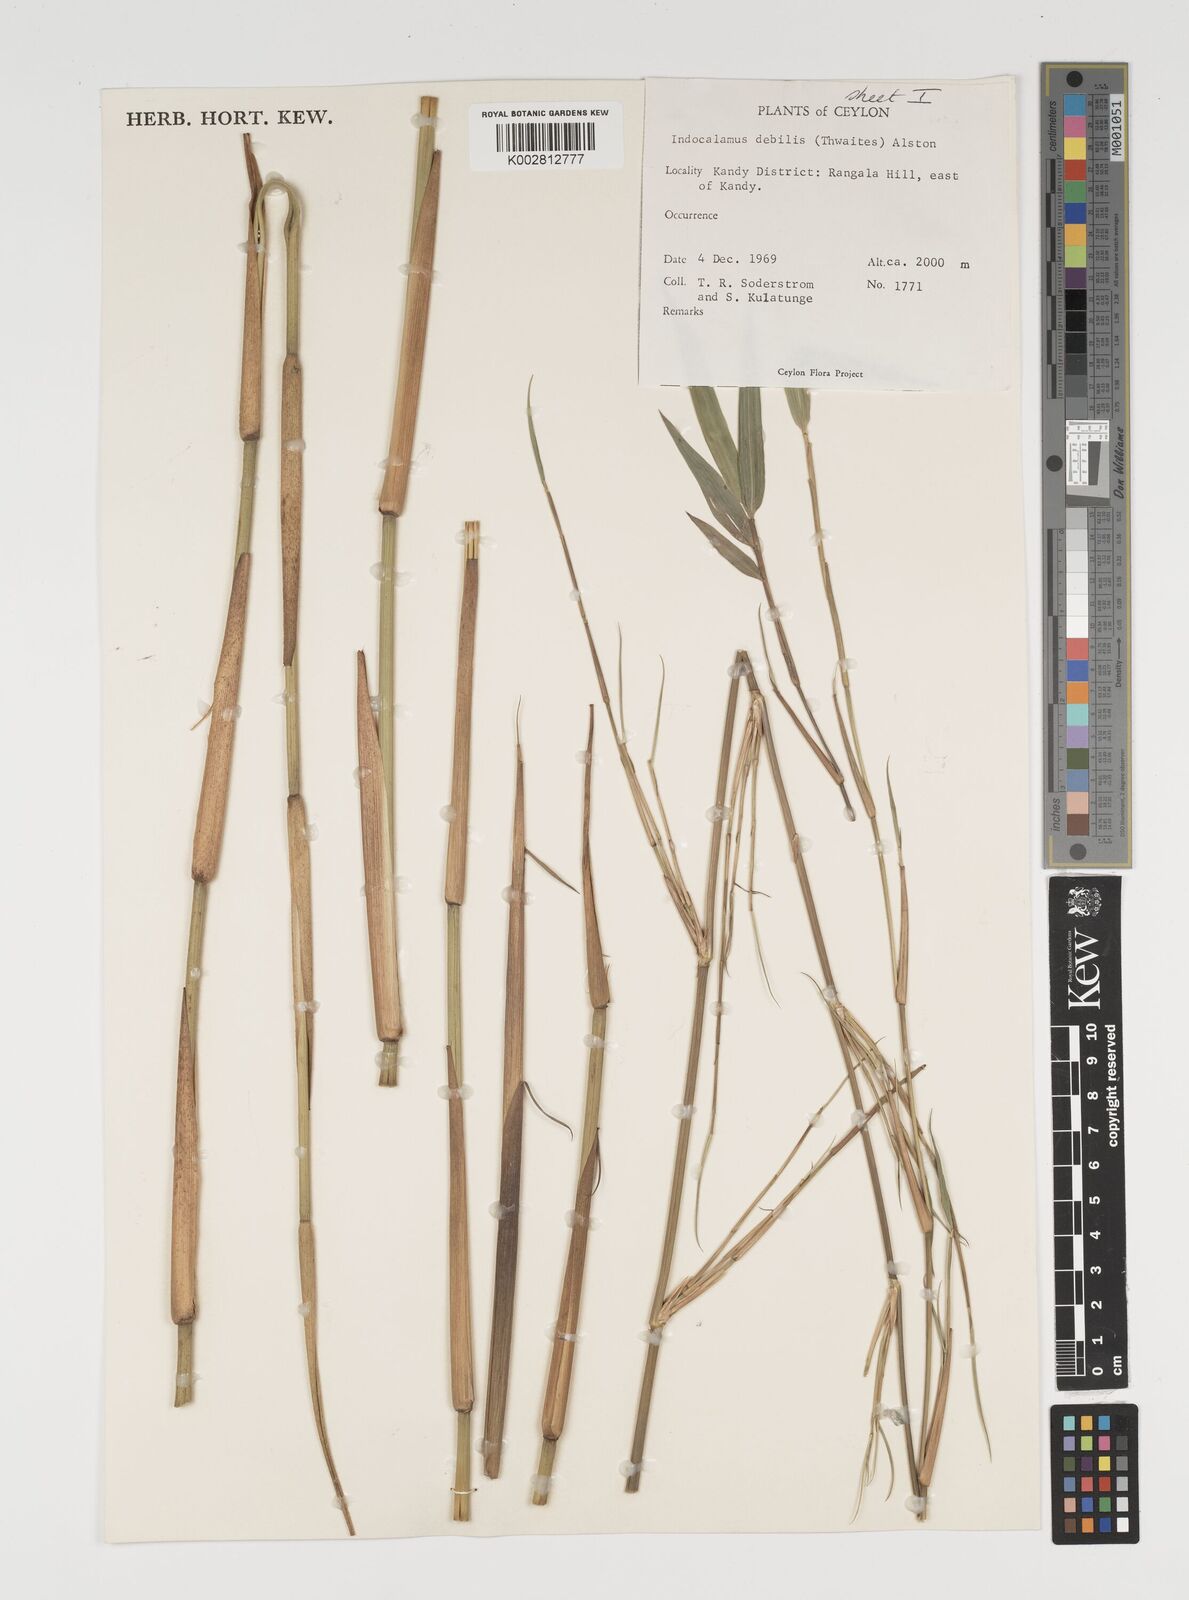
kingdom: Plantae
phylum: Tracheophyta
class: Liliopsida
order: Poales
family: Poaceae
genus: Kuruna
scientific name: Kuruna debilis
